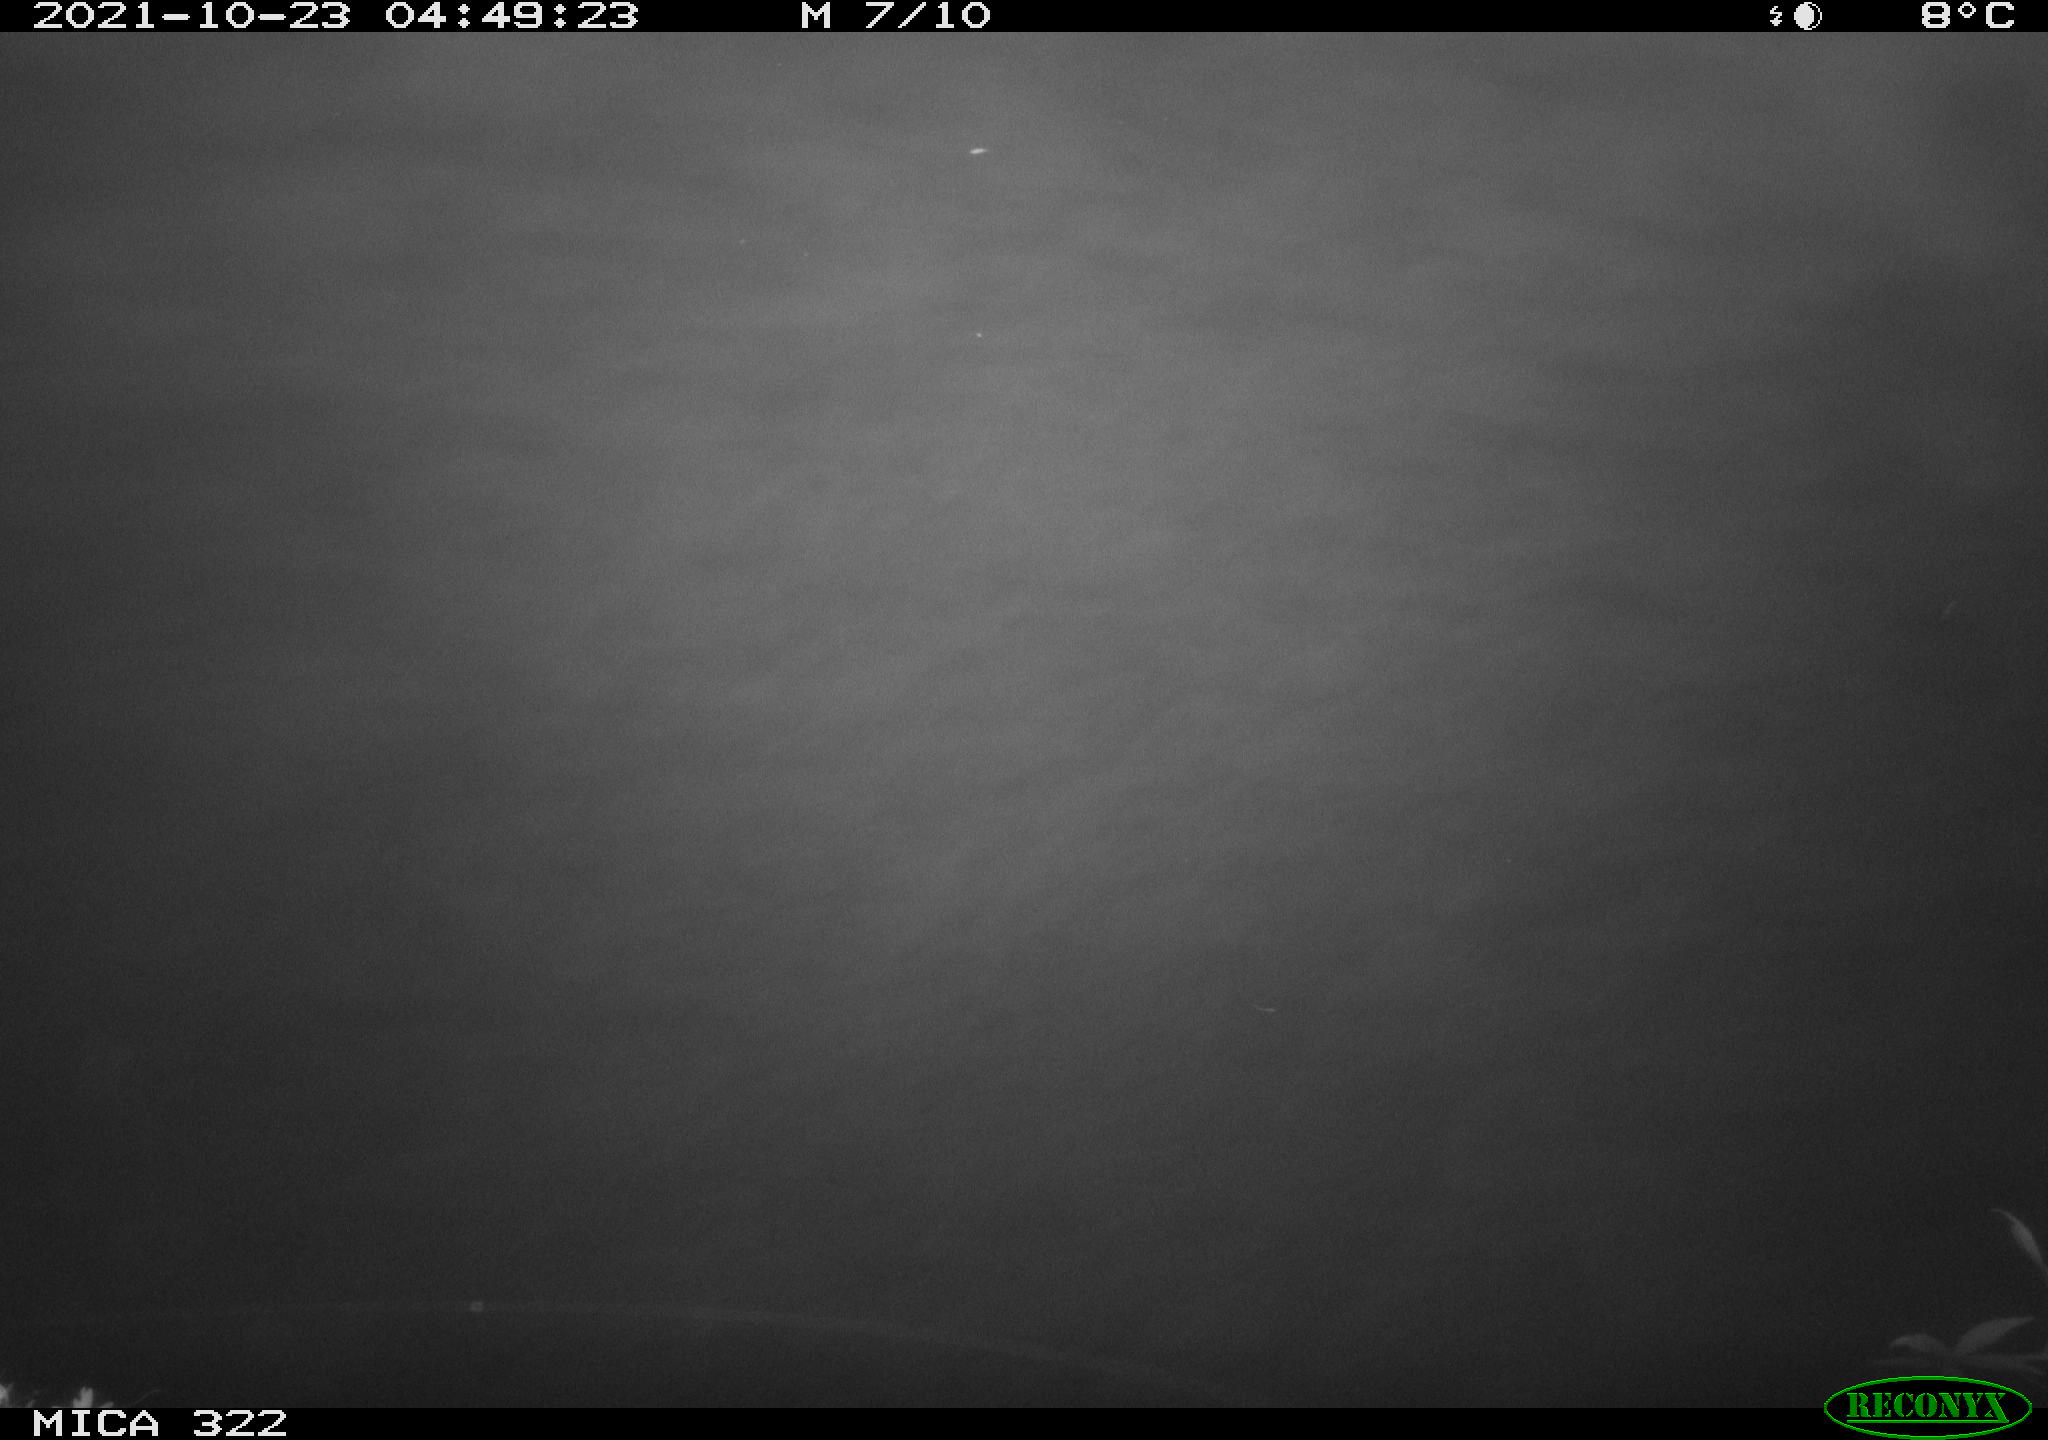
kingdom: Animalia
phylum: Chordata
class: Mammalia
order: Rodentia
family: Cricetidae
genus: Ondatra
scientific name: Ondatra zibethicus
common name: Muskrat
